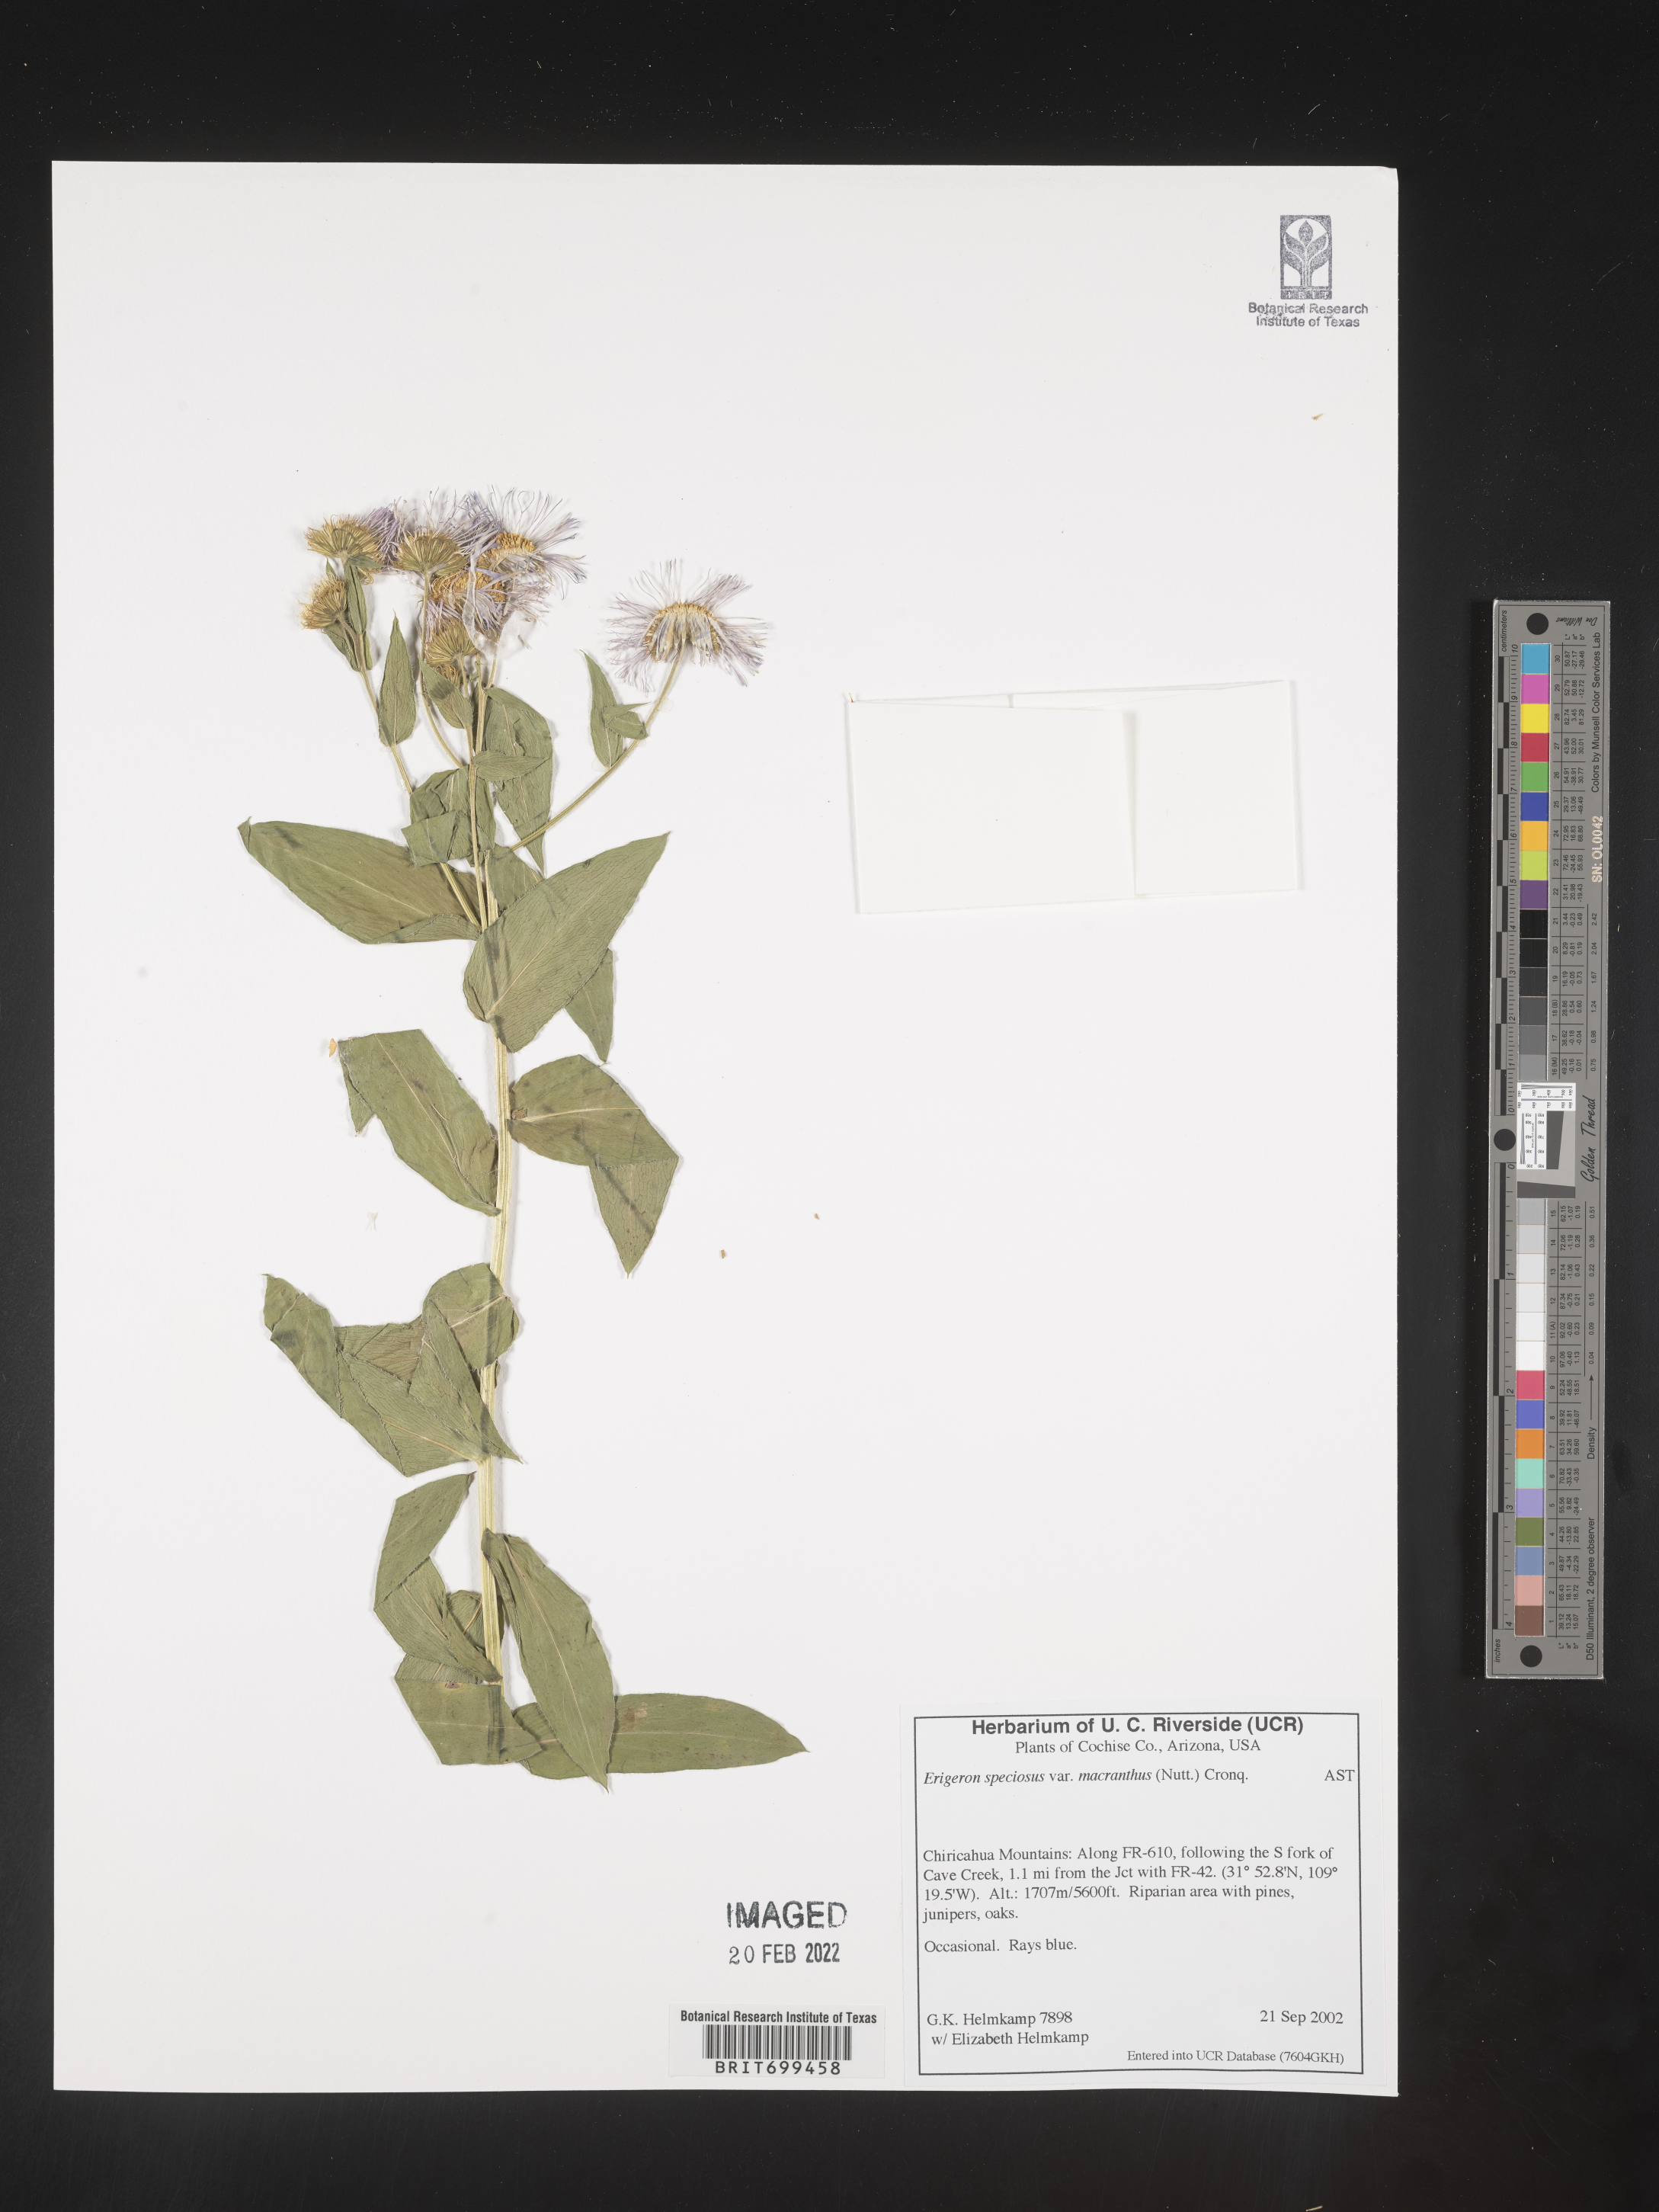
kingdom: Plantae
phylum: Tracheophyta
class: Magnoliopsida
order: Asterales
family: Asteraceae
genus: Erigeron
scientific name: Erigeron speciosus
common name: Aspen fleabane
